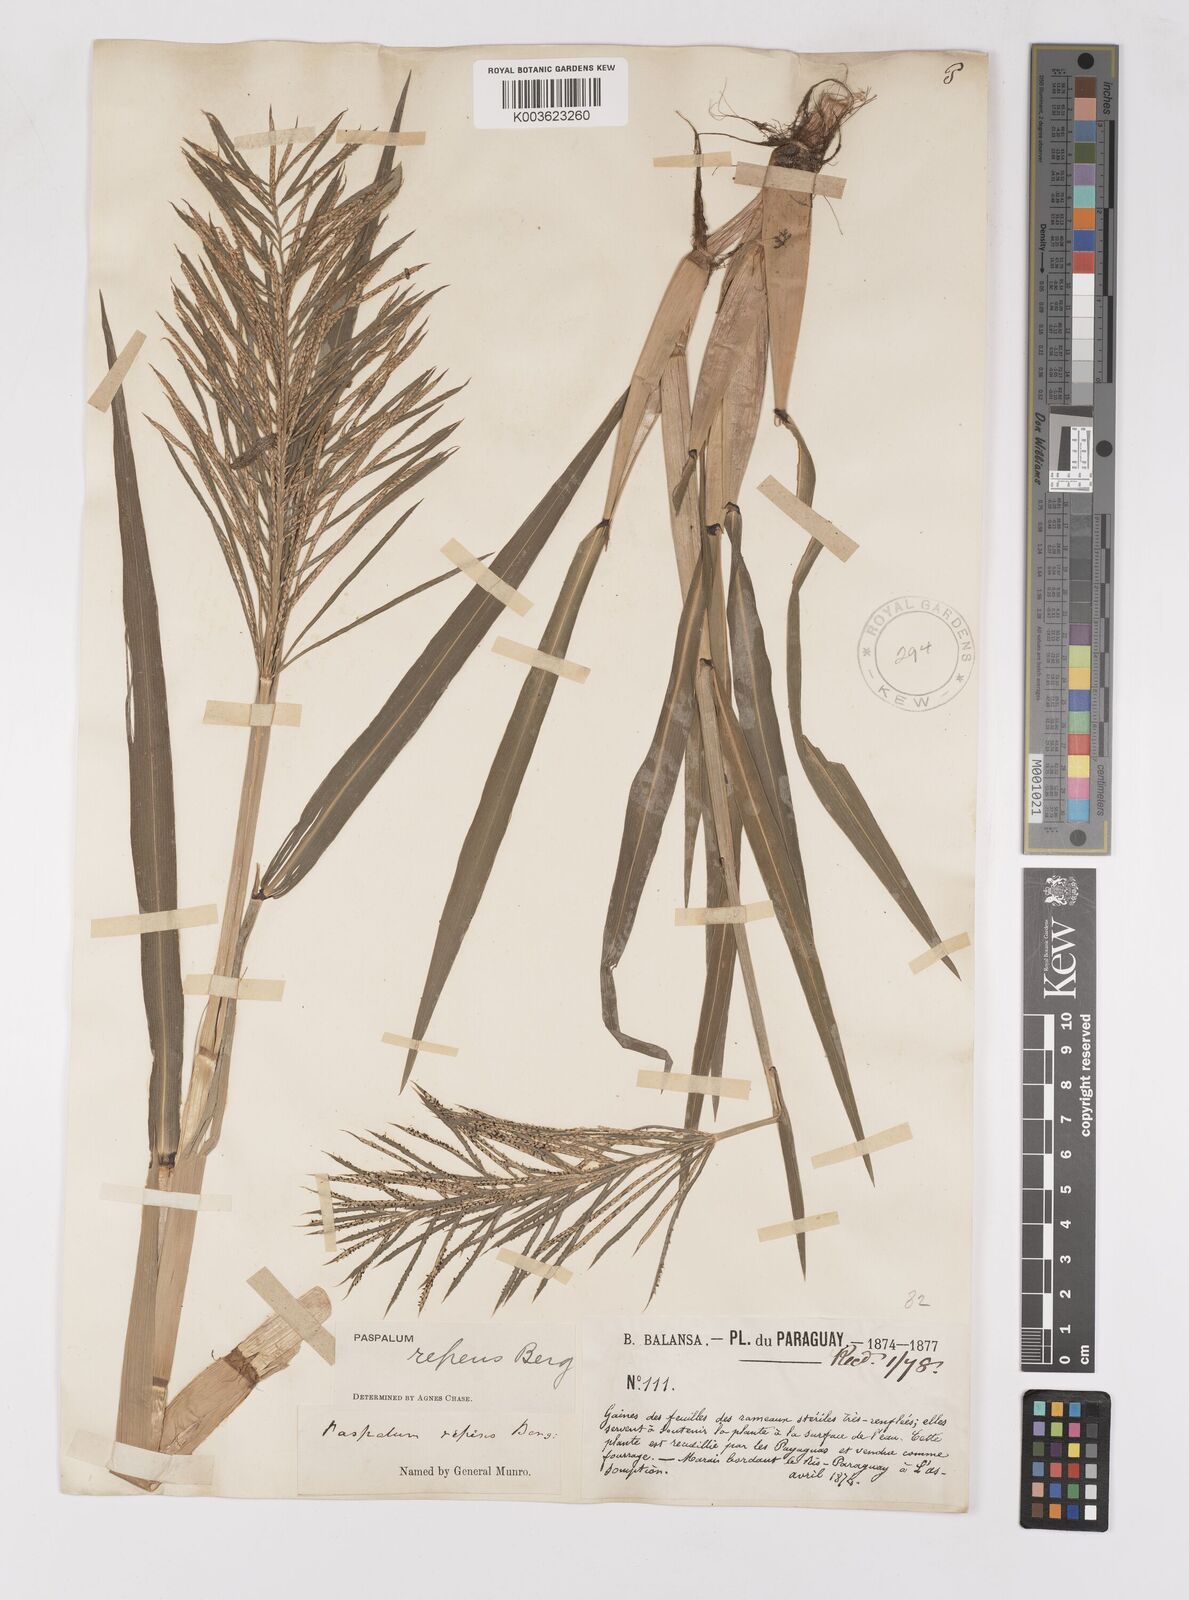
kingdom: Plantae
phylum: Tracheophyta
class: Liliopsida
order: Poales
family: Poaceae
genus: Paspalum
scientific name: Paspalum repens
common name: Water paspalum
